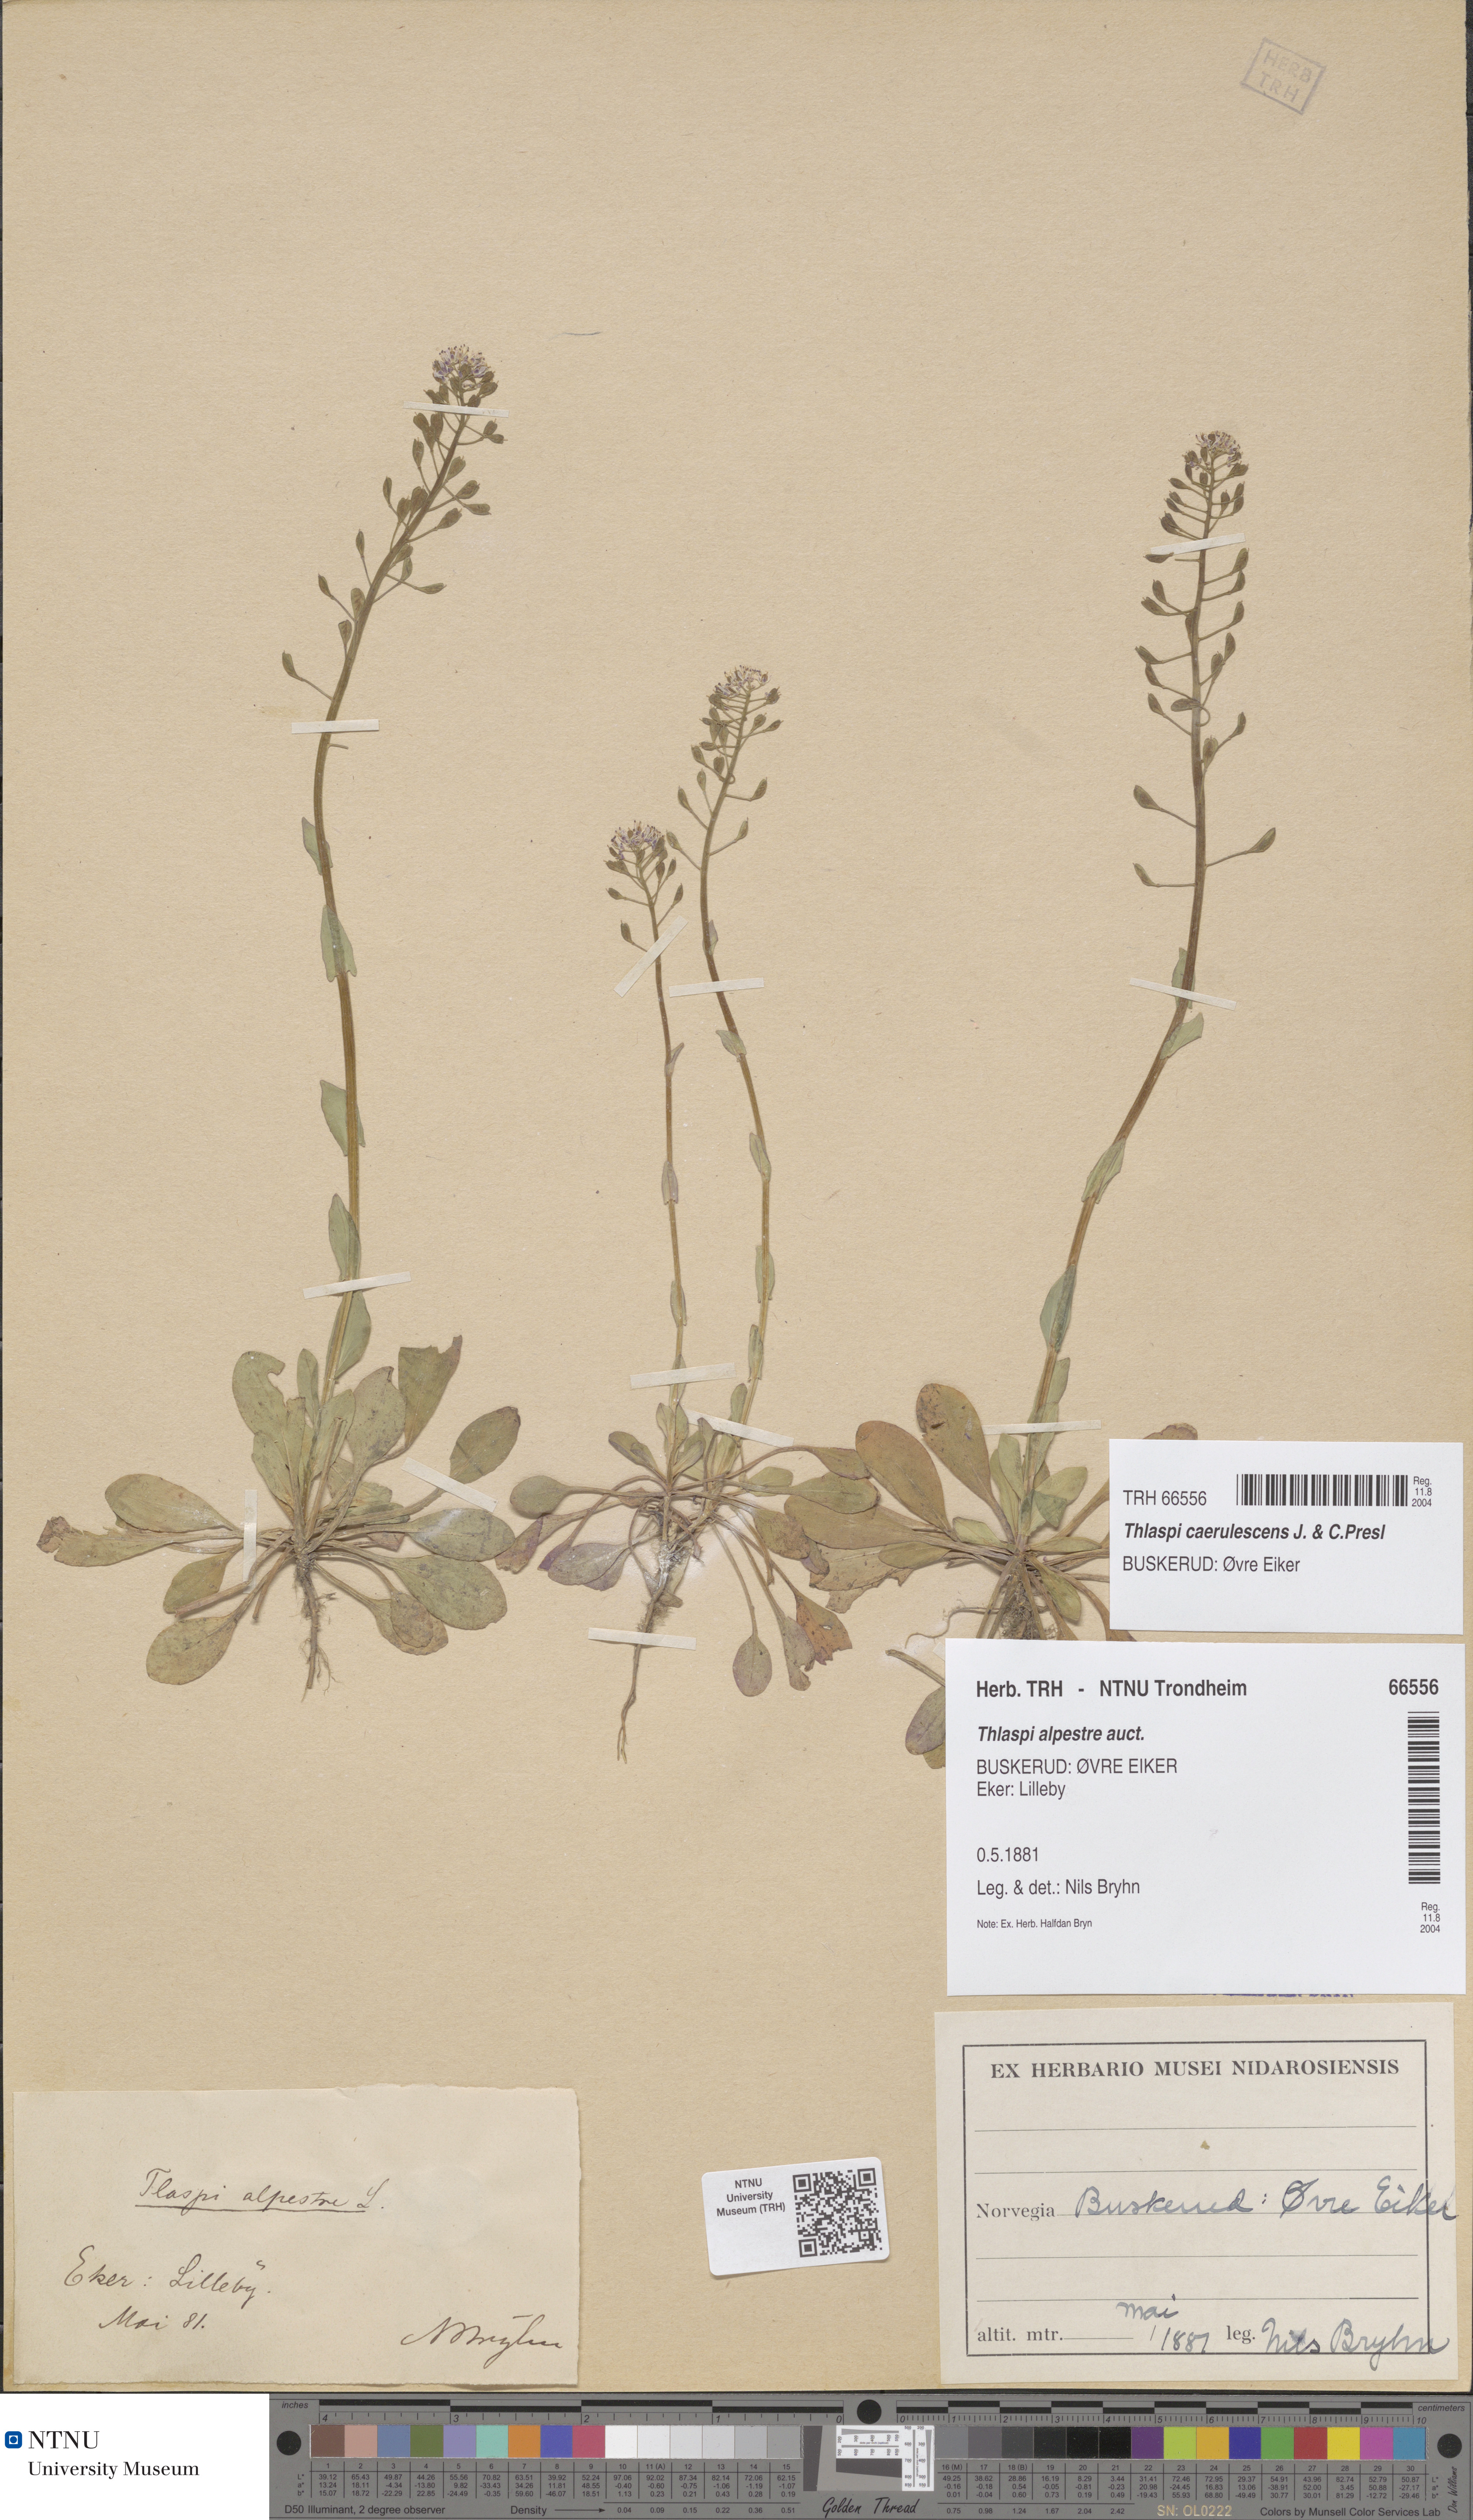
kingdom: Plantae
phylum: Tracheophyta
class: Magnoliopsida
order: Brassicales
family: Brassicaceae
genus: Noccaea
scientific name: Noccaea caerulescens
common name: Alpine pennycress
